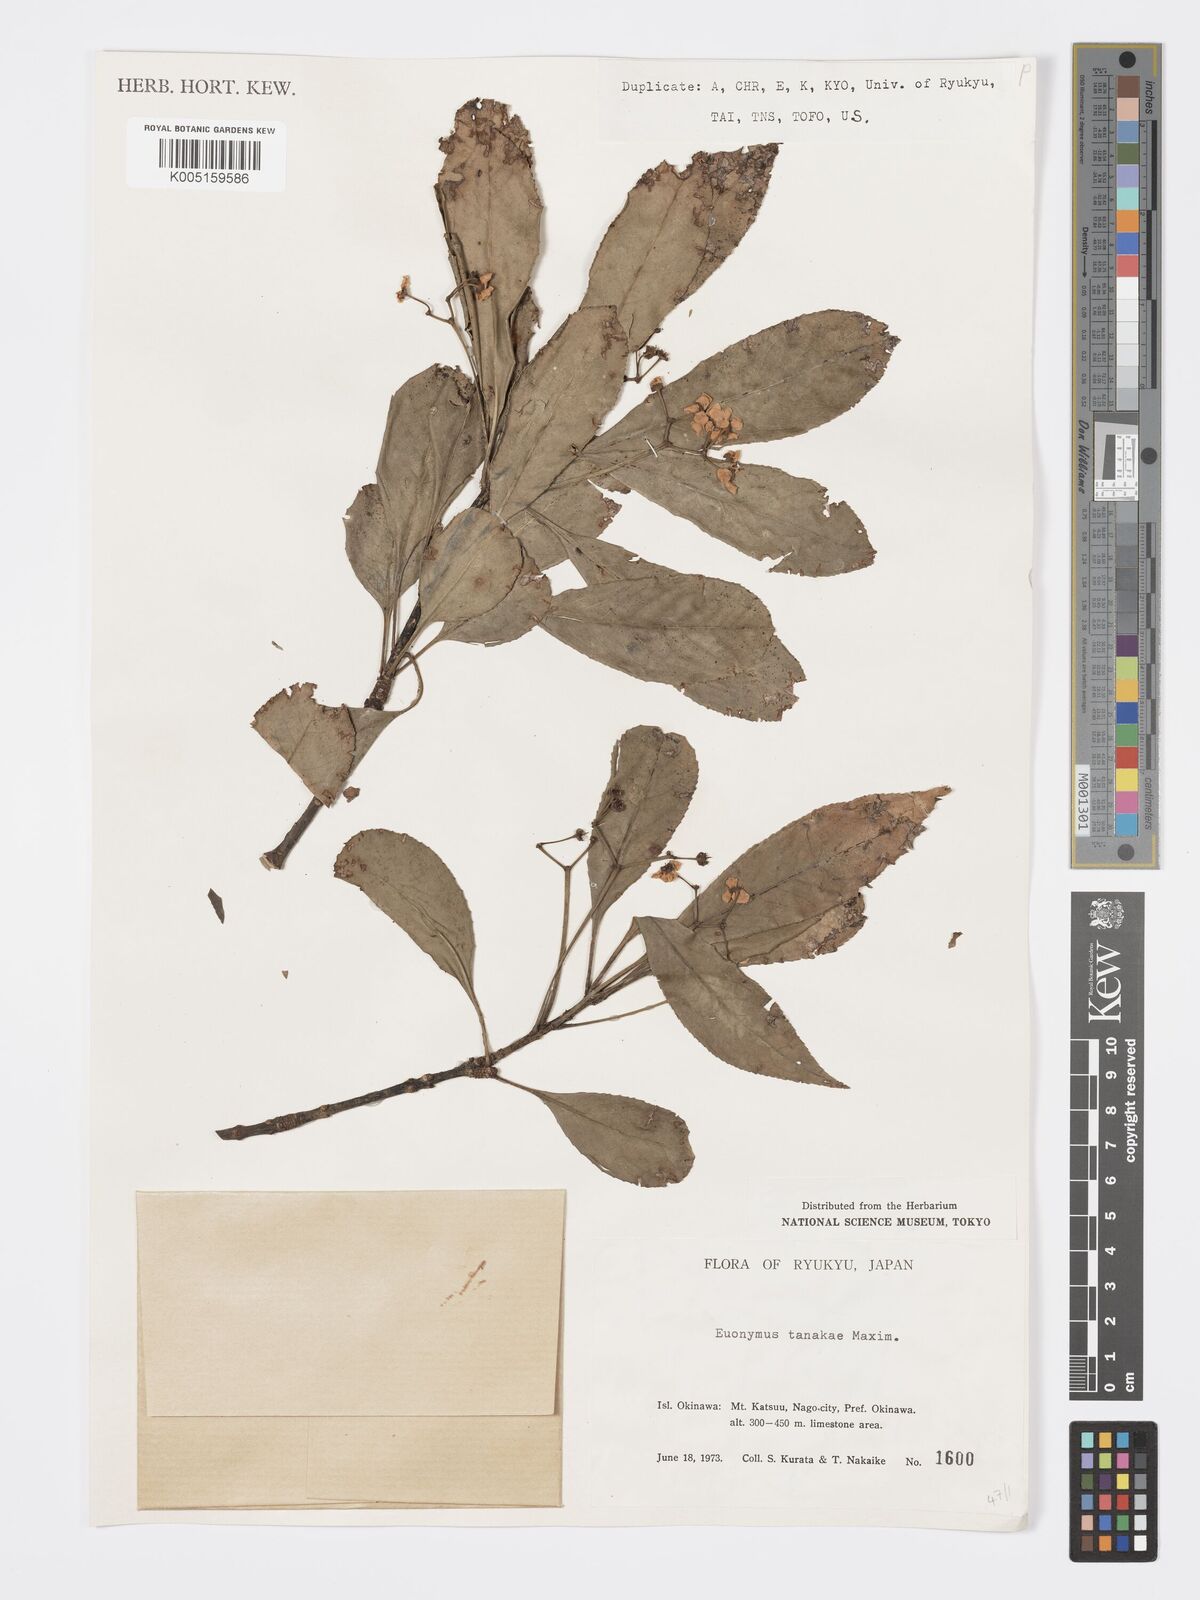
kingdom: Plantae
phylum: Tracheophyta
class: Magnoliopsida
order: Celastrales
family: Celastraceae
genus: Euonymus
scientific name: Euonymus carnosus
